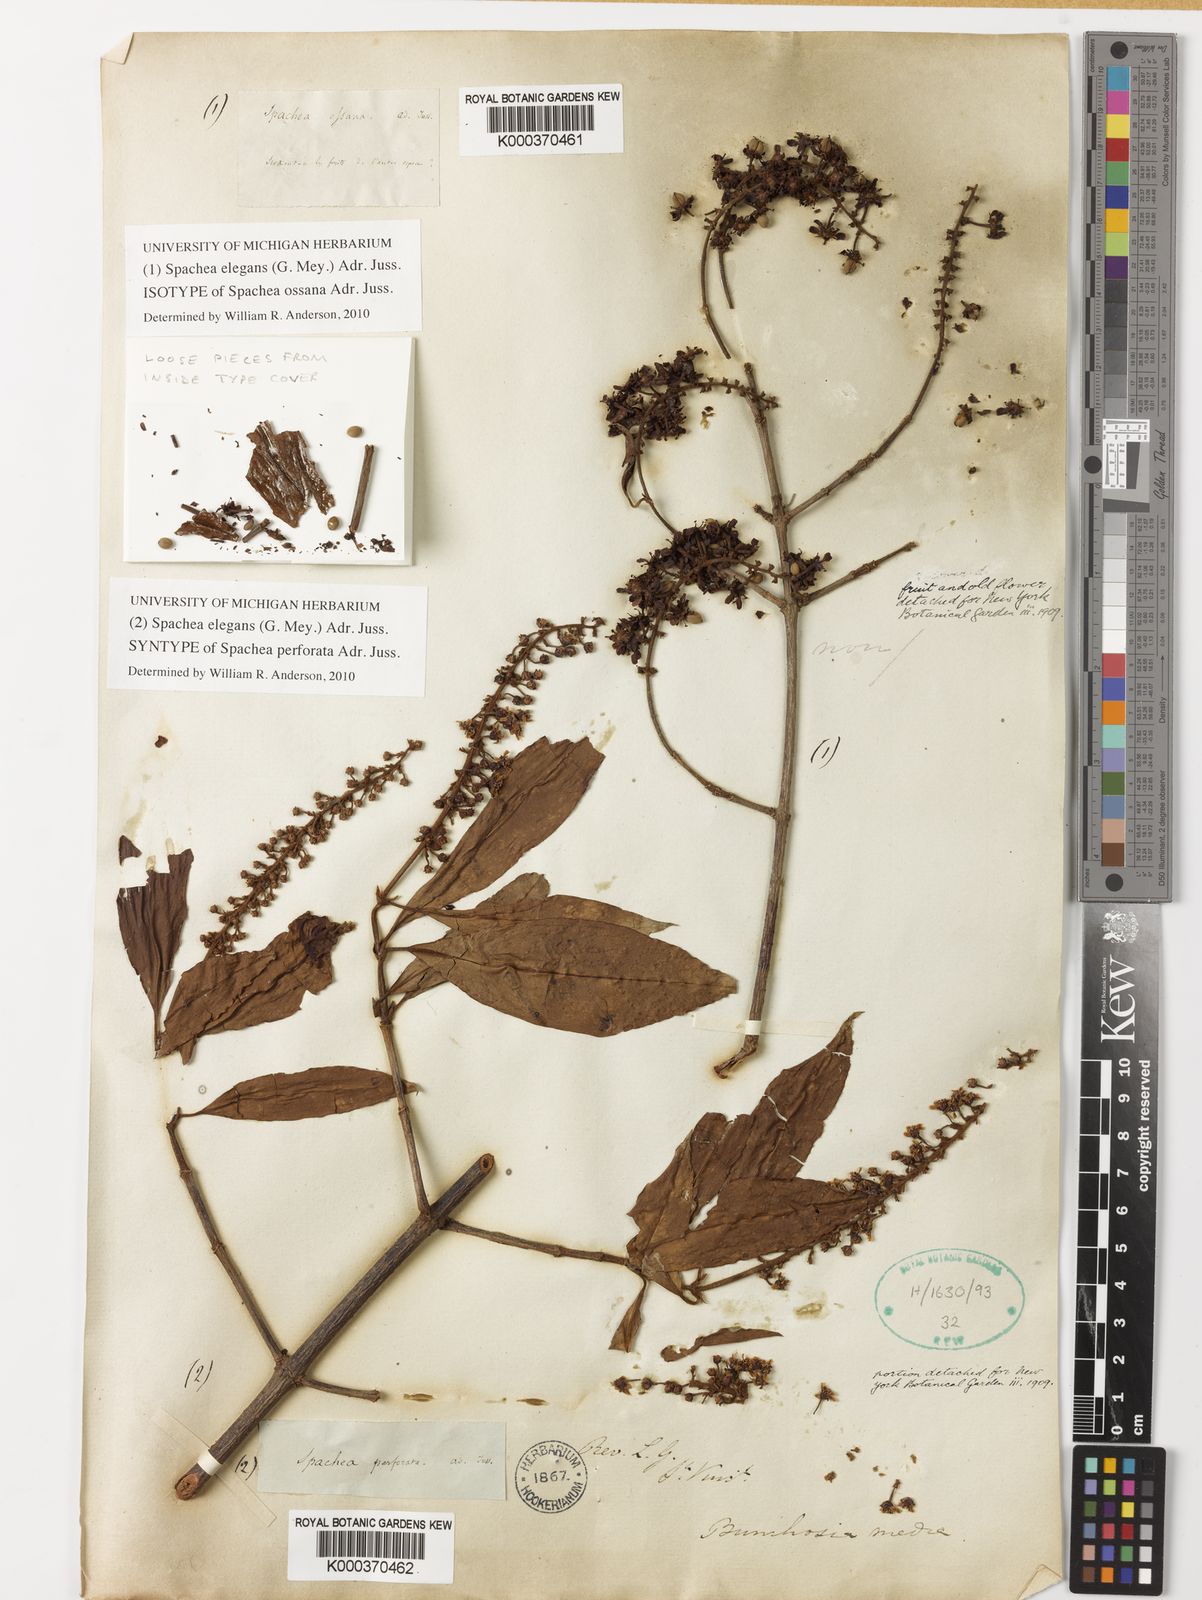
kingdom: Plantae
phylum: Tracheophyta
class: Magnoliopsida
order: Malpighiales
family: Malpighiaceae
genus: Spachea
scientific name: Spachea elegans
